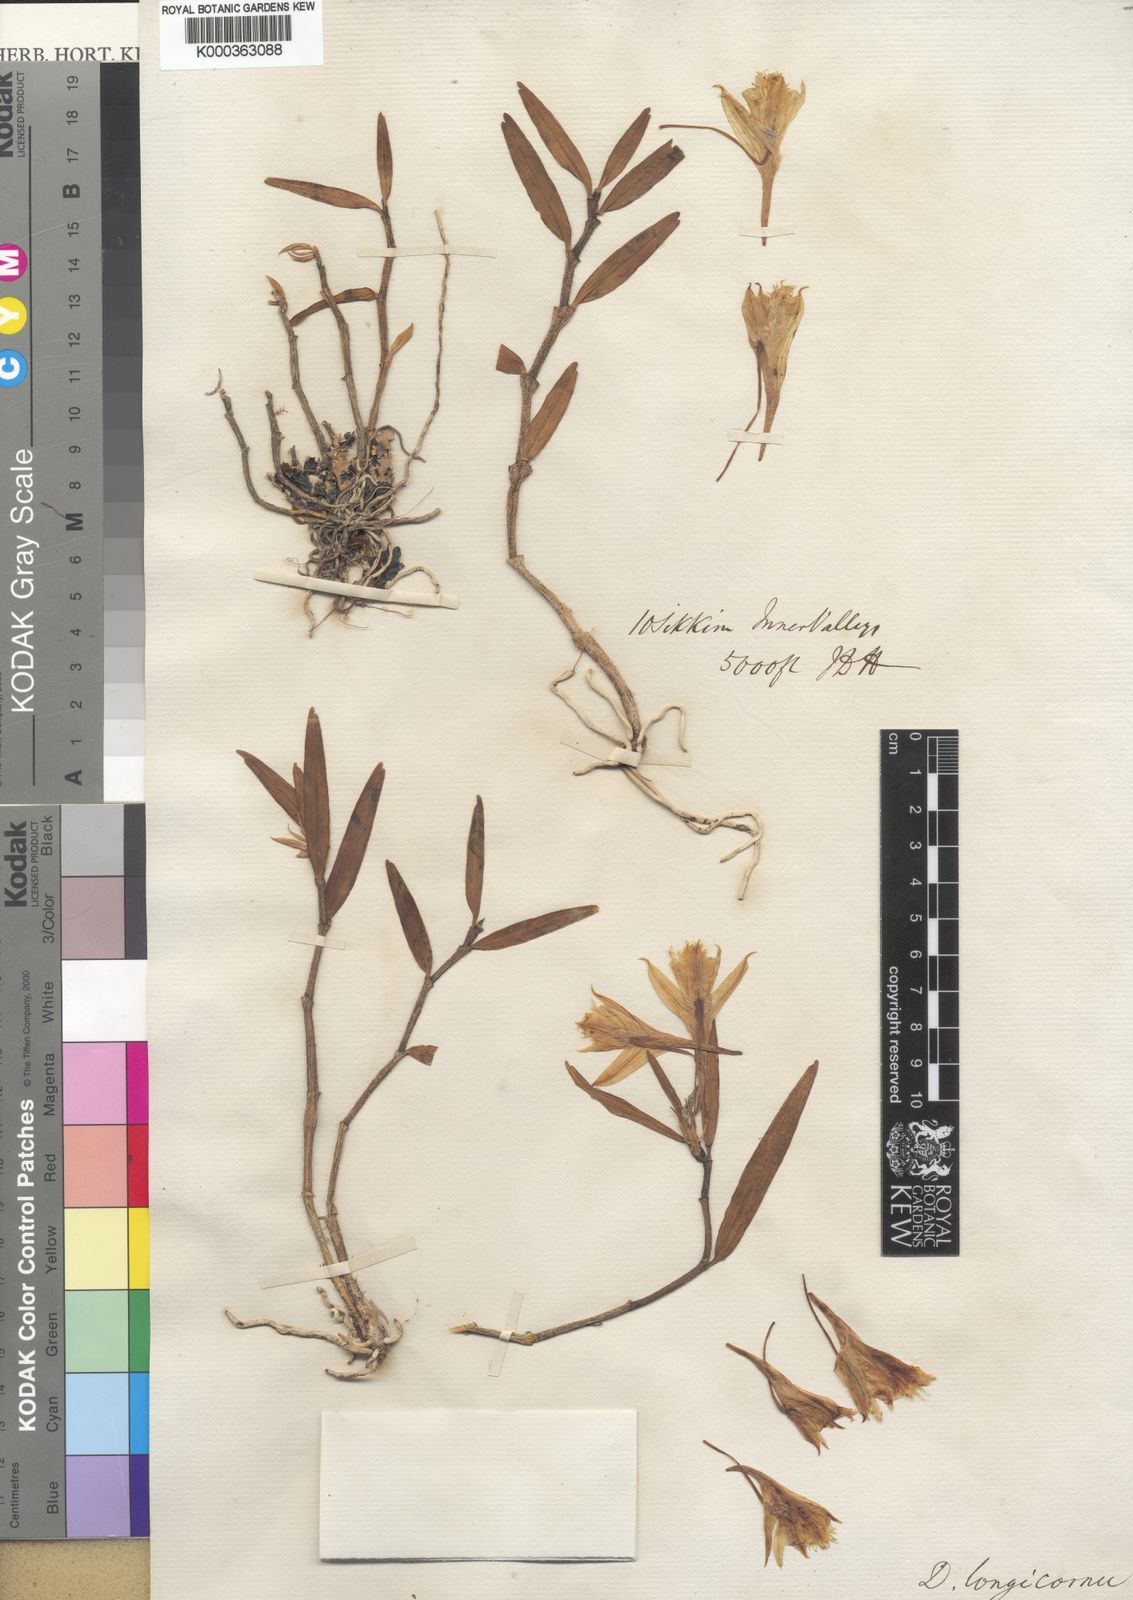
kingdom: Plantae
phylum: Tracheophyta
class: Liliopsida
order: Asparagales
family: Orchidaceae
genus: Dendrobium
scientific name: Dendrobium longicornu
